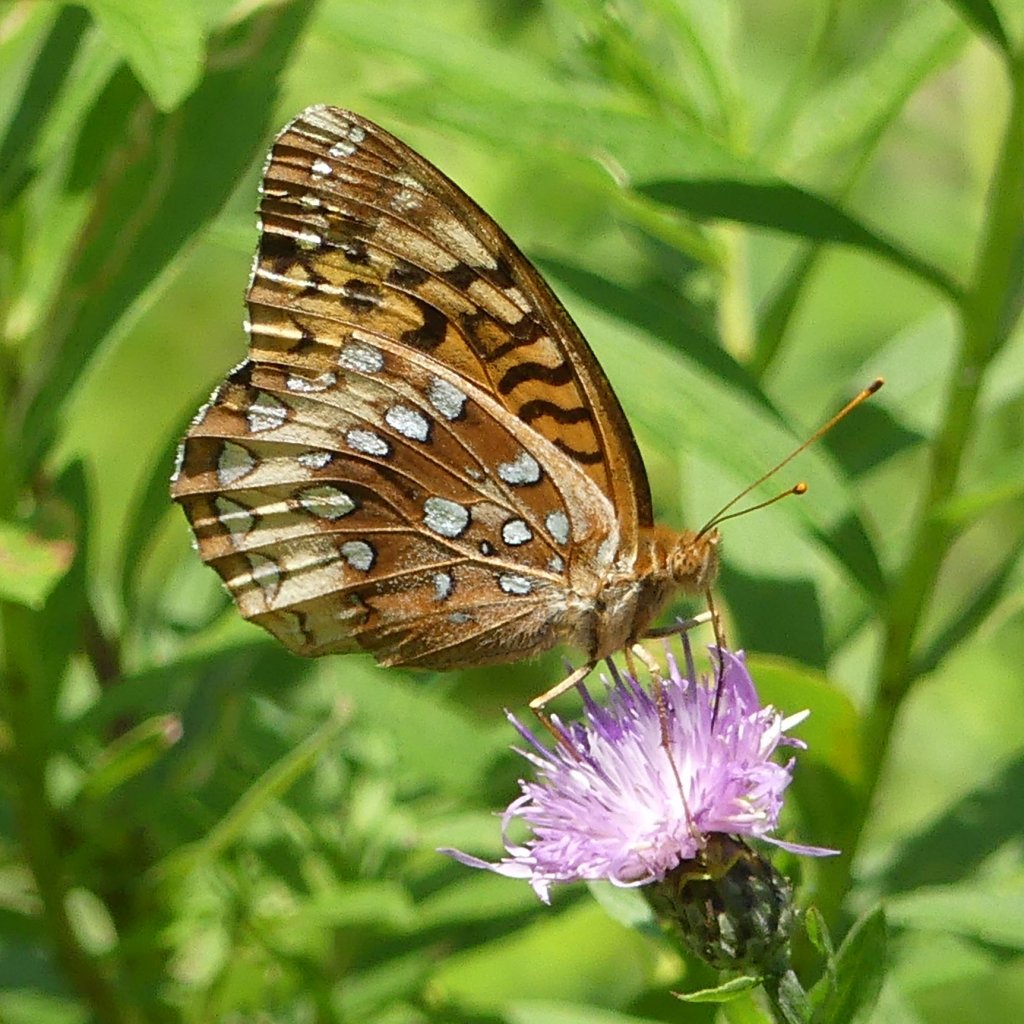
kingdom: Animalia
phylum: Arthropoda
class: Insecta
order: Lepidoptera
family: Nymphalidae
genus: Speyeria
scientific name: Speyeria cybele
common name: Great Spangled Fritillary
